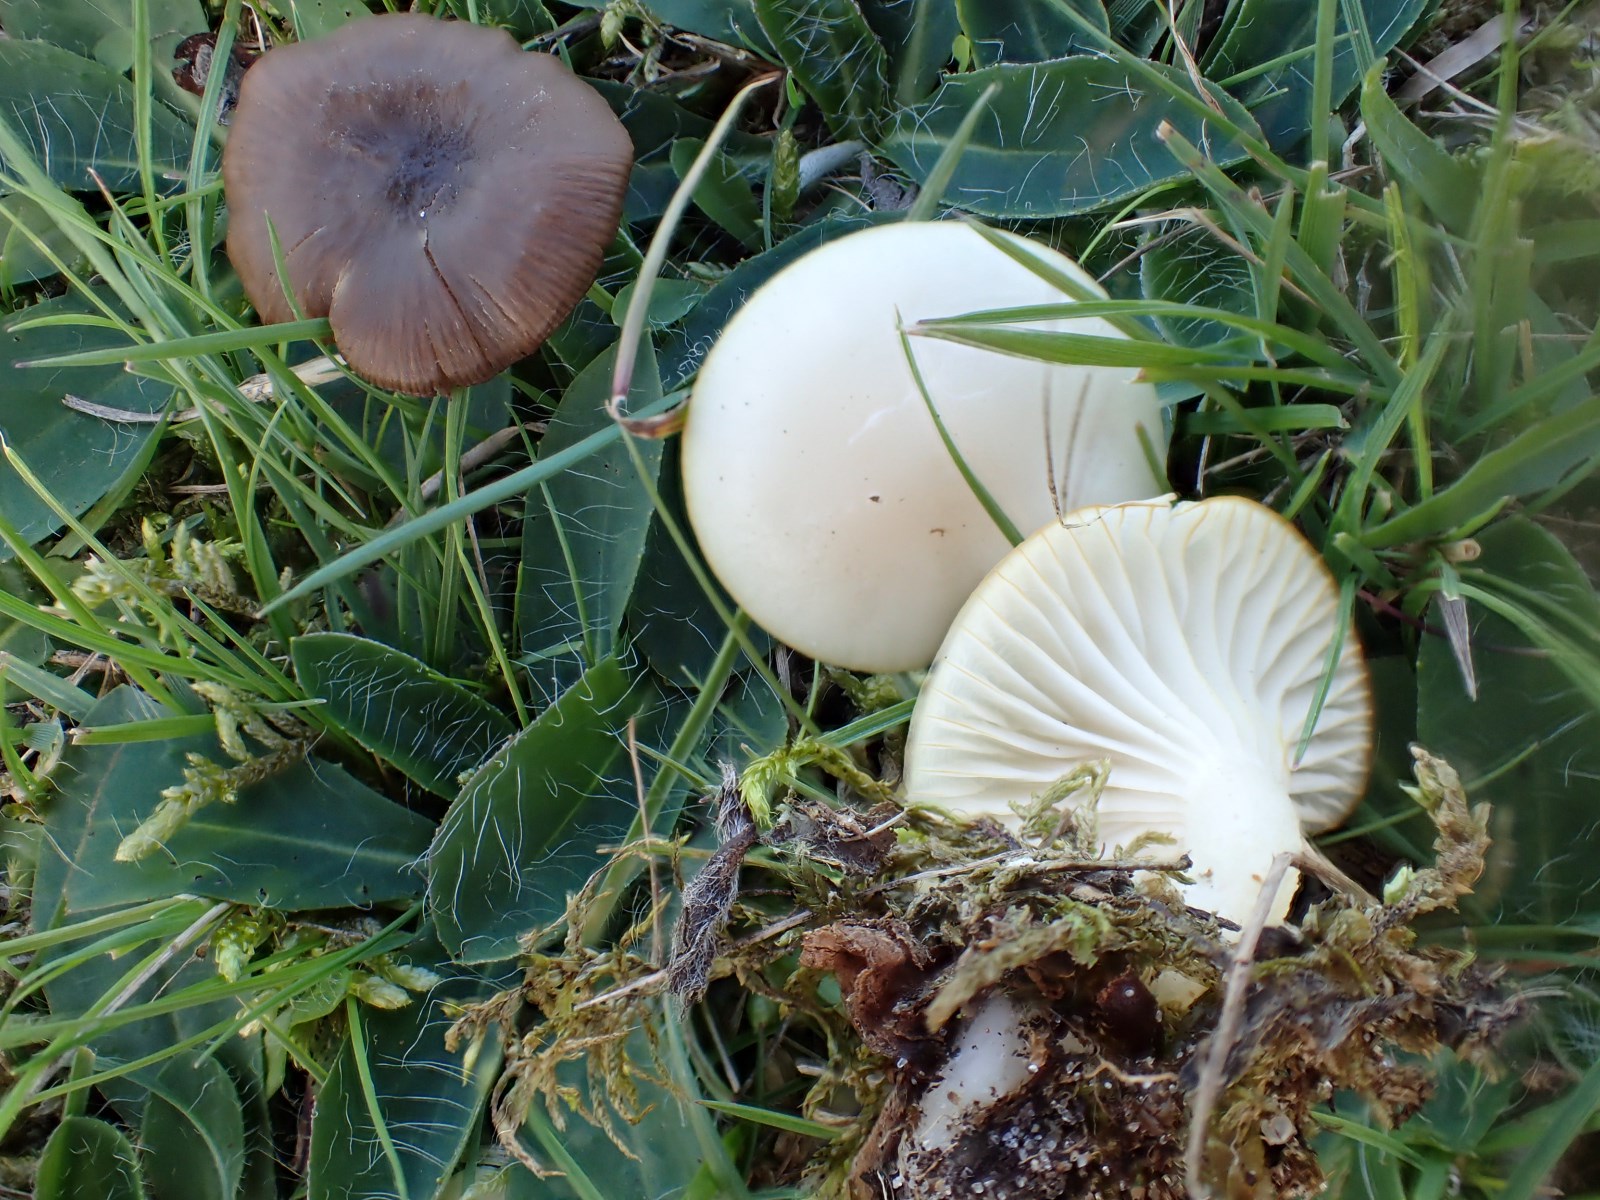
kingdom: Fungi
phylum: Basidiomycota
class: Agaricomycetes
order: Agaricales
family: Hygrophoraceae
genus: Cuphophyllus
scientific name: Cuphophyllus virgineus
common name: snehvid vokshat
